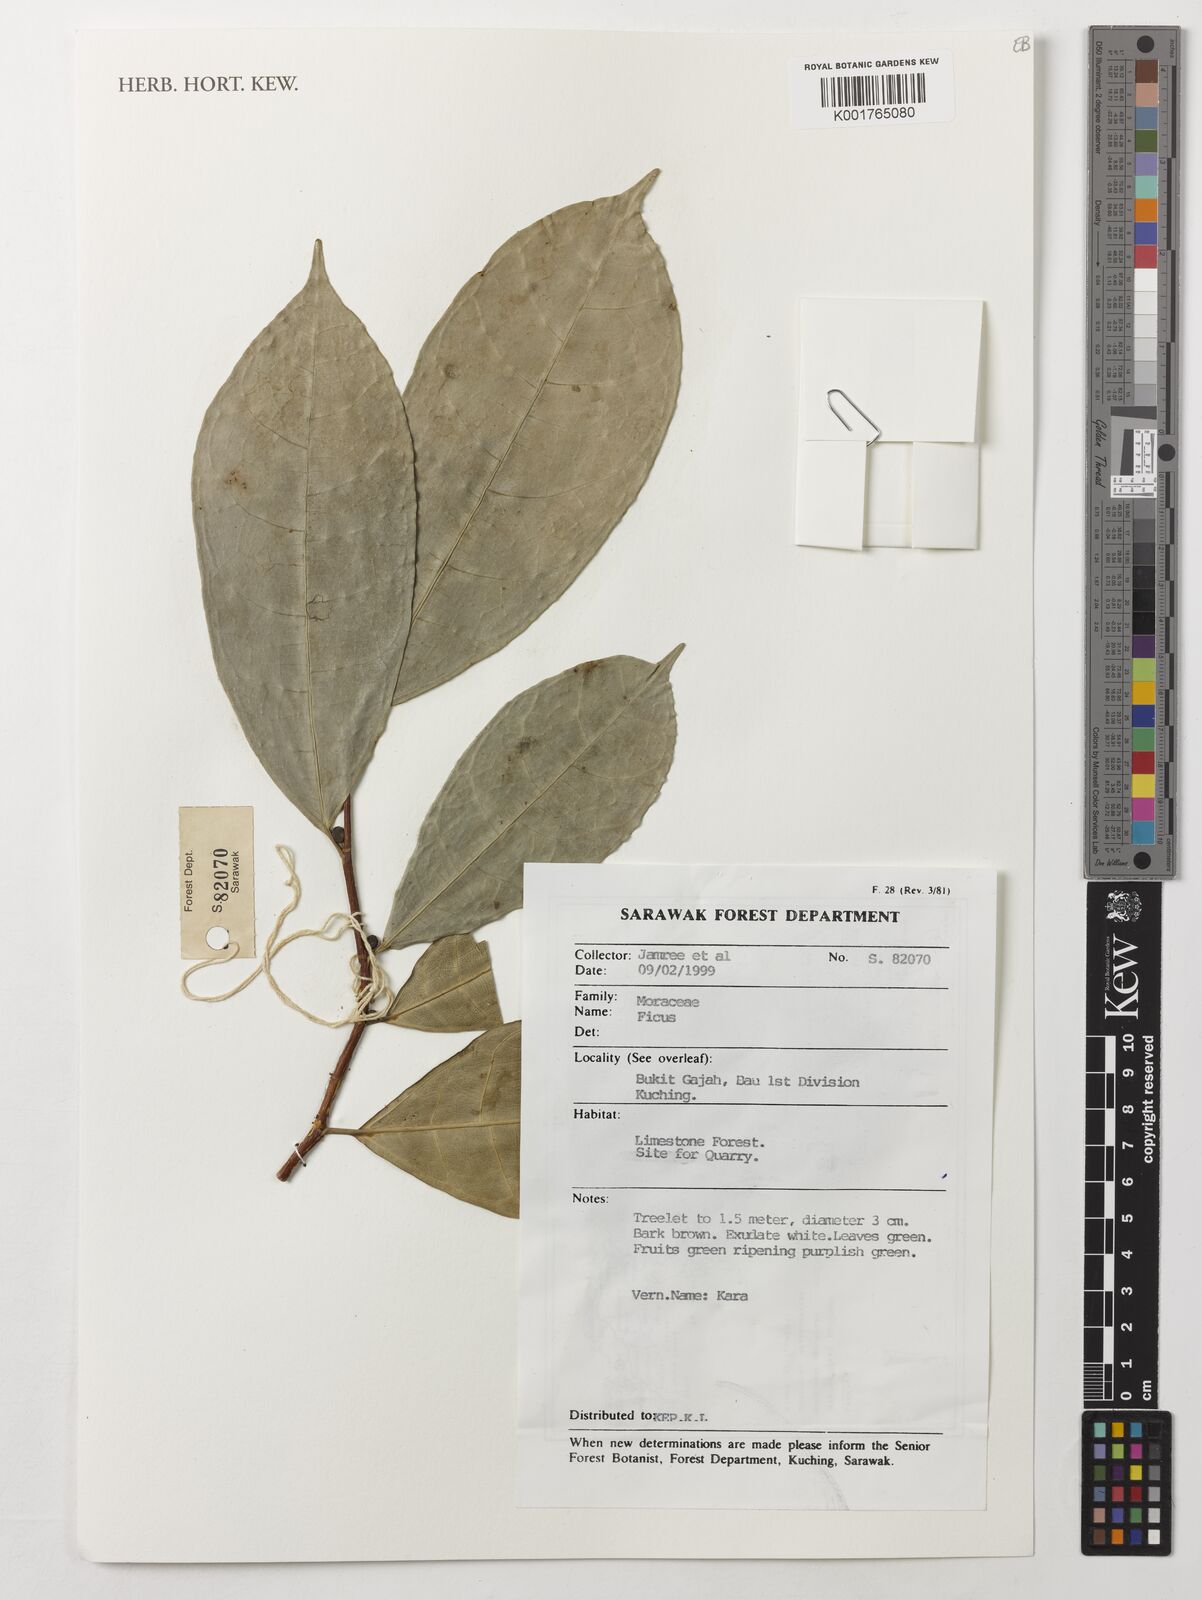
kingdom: Plantae
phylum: Tracheophyta
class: Magnoliopsida
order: Rosales
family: Moraceae
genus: Ficus
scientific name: Ficus
